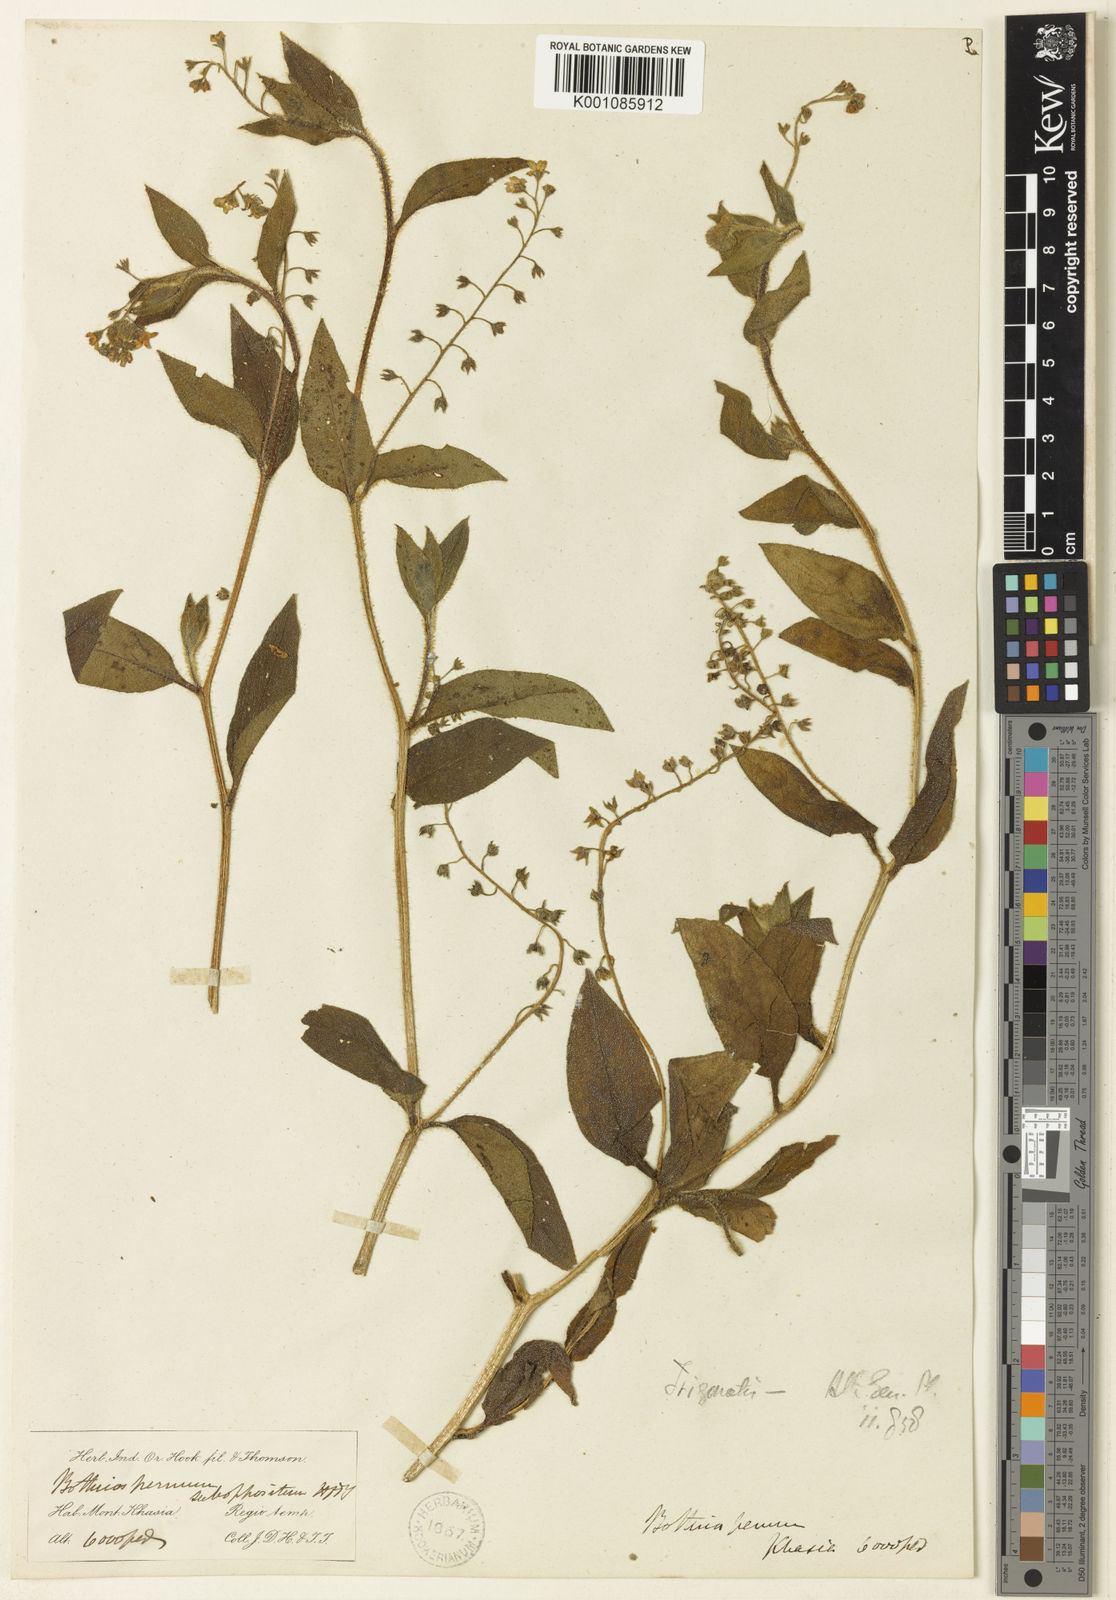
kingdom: Plantae
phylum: Tracheophyta
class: Magnoliopsida
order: Boraginales
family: Boraginaceae
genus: Trigonotis
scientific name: Trigonotis hookeri
